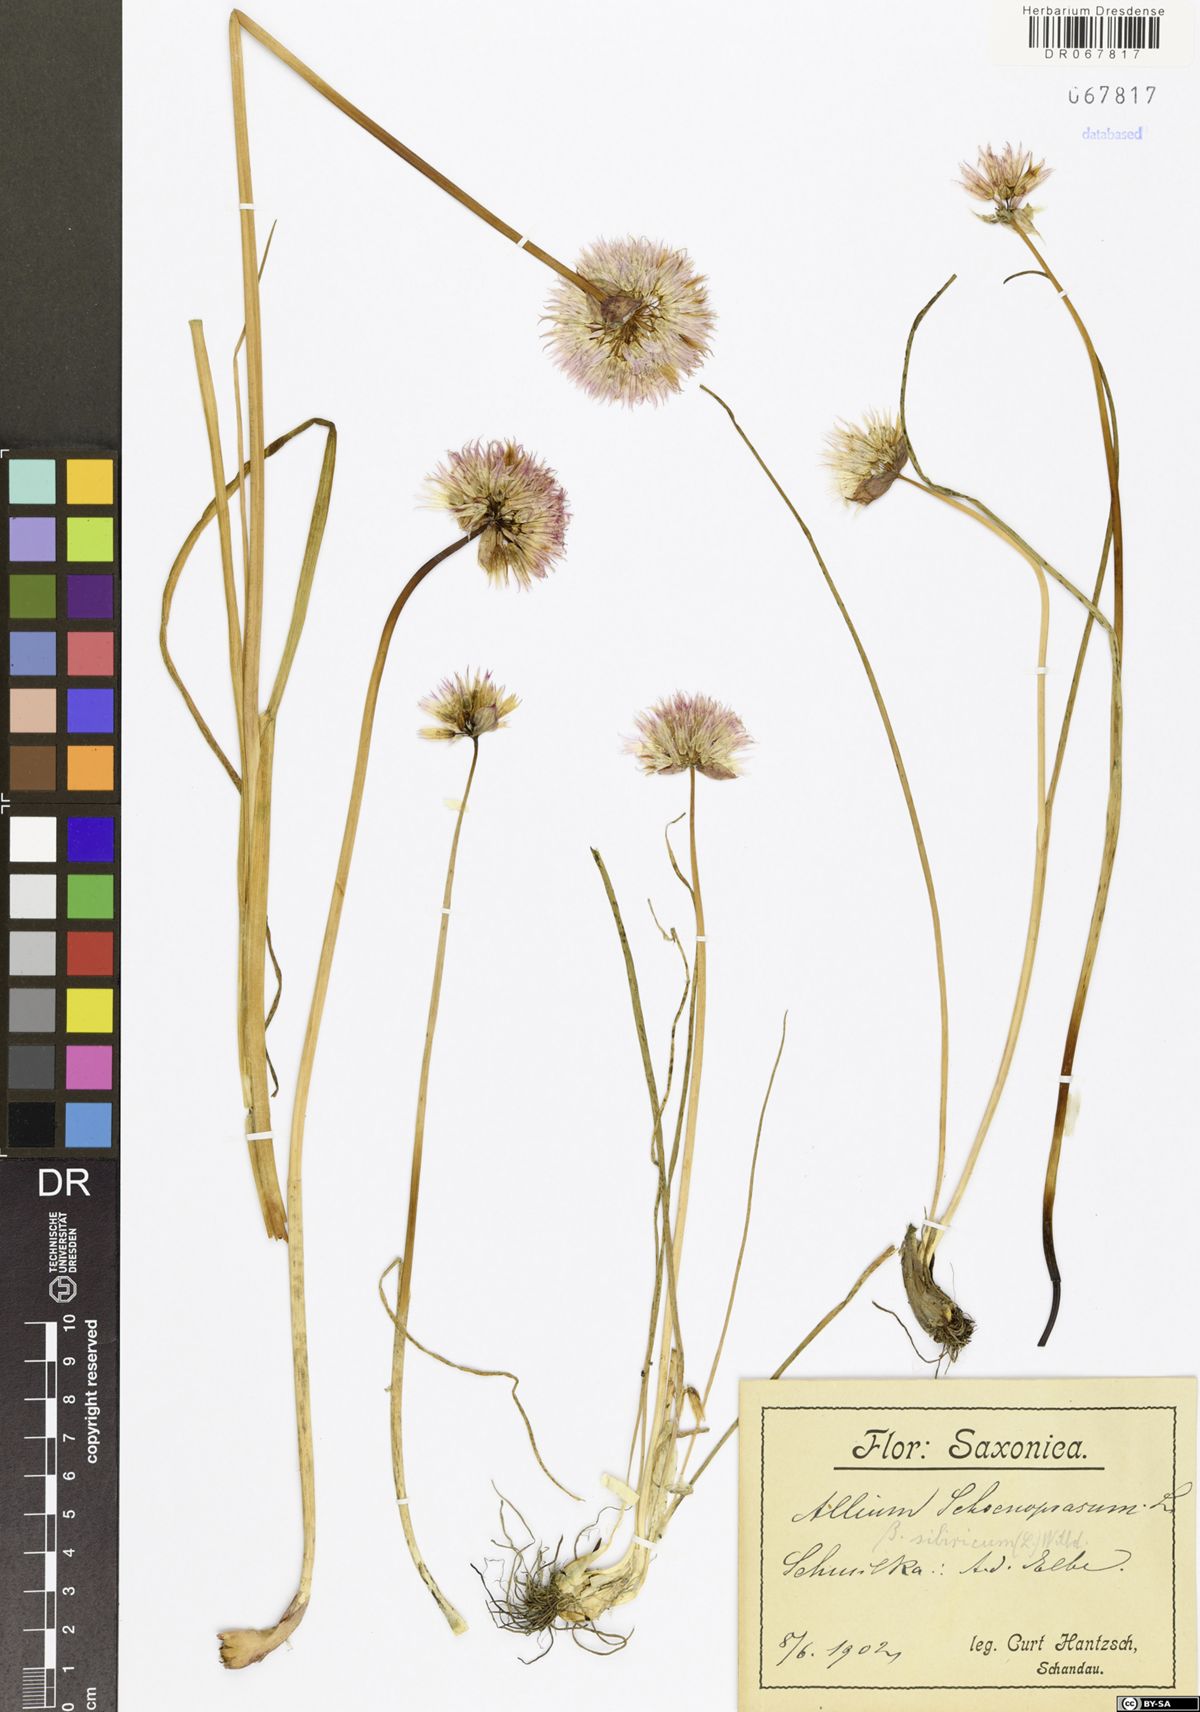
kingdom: Plantae
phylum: Tracheophyta
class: Liliopsida
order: Asparagales
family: Amaryllidaceae
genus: Allium
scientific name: Allium schoenoprasum
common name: Chives
